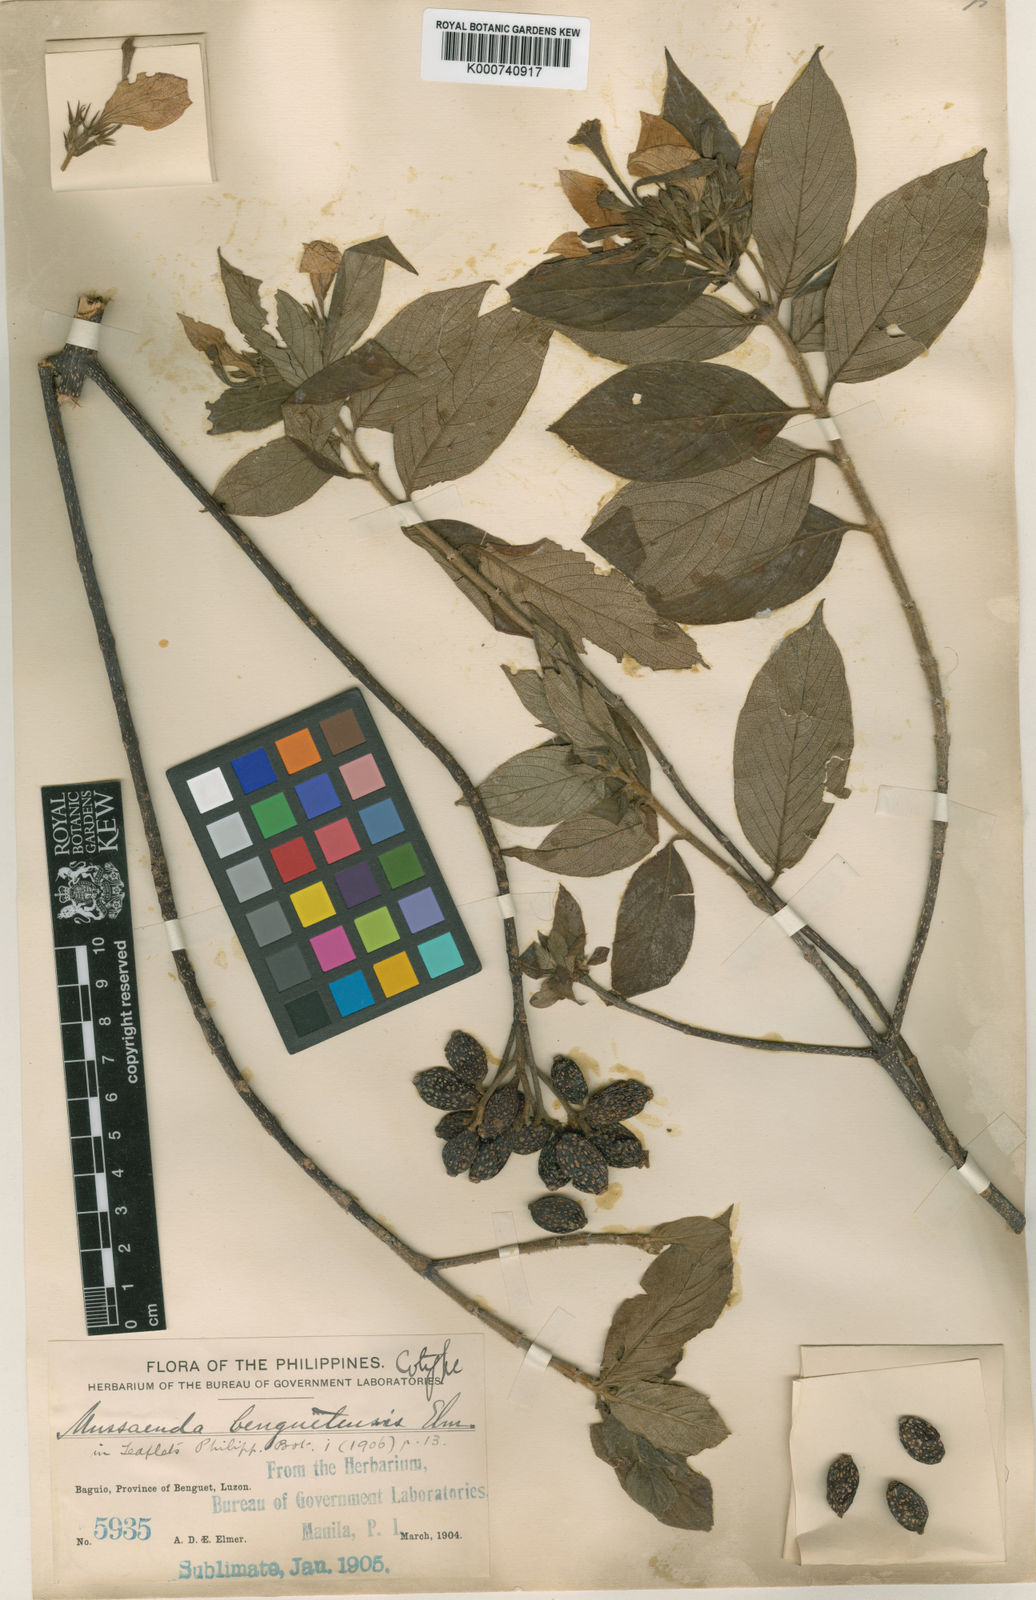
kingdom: Plantae
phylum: Tracheophyta
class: Magnoliopsida
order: Gentianales
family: Rubiaceae
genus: Mussaenda
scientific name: Mussaenda benguetensis
